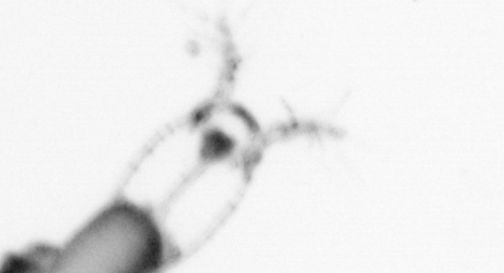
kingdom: Animalia
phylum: Arthropoda
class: Copepoda
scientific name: Copepoda
